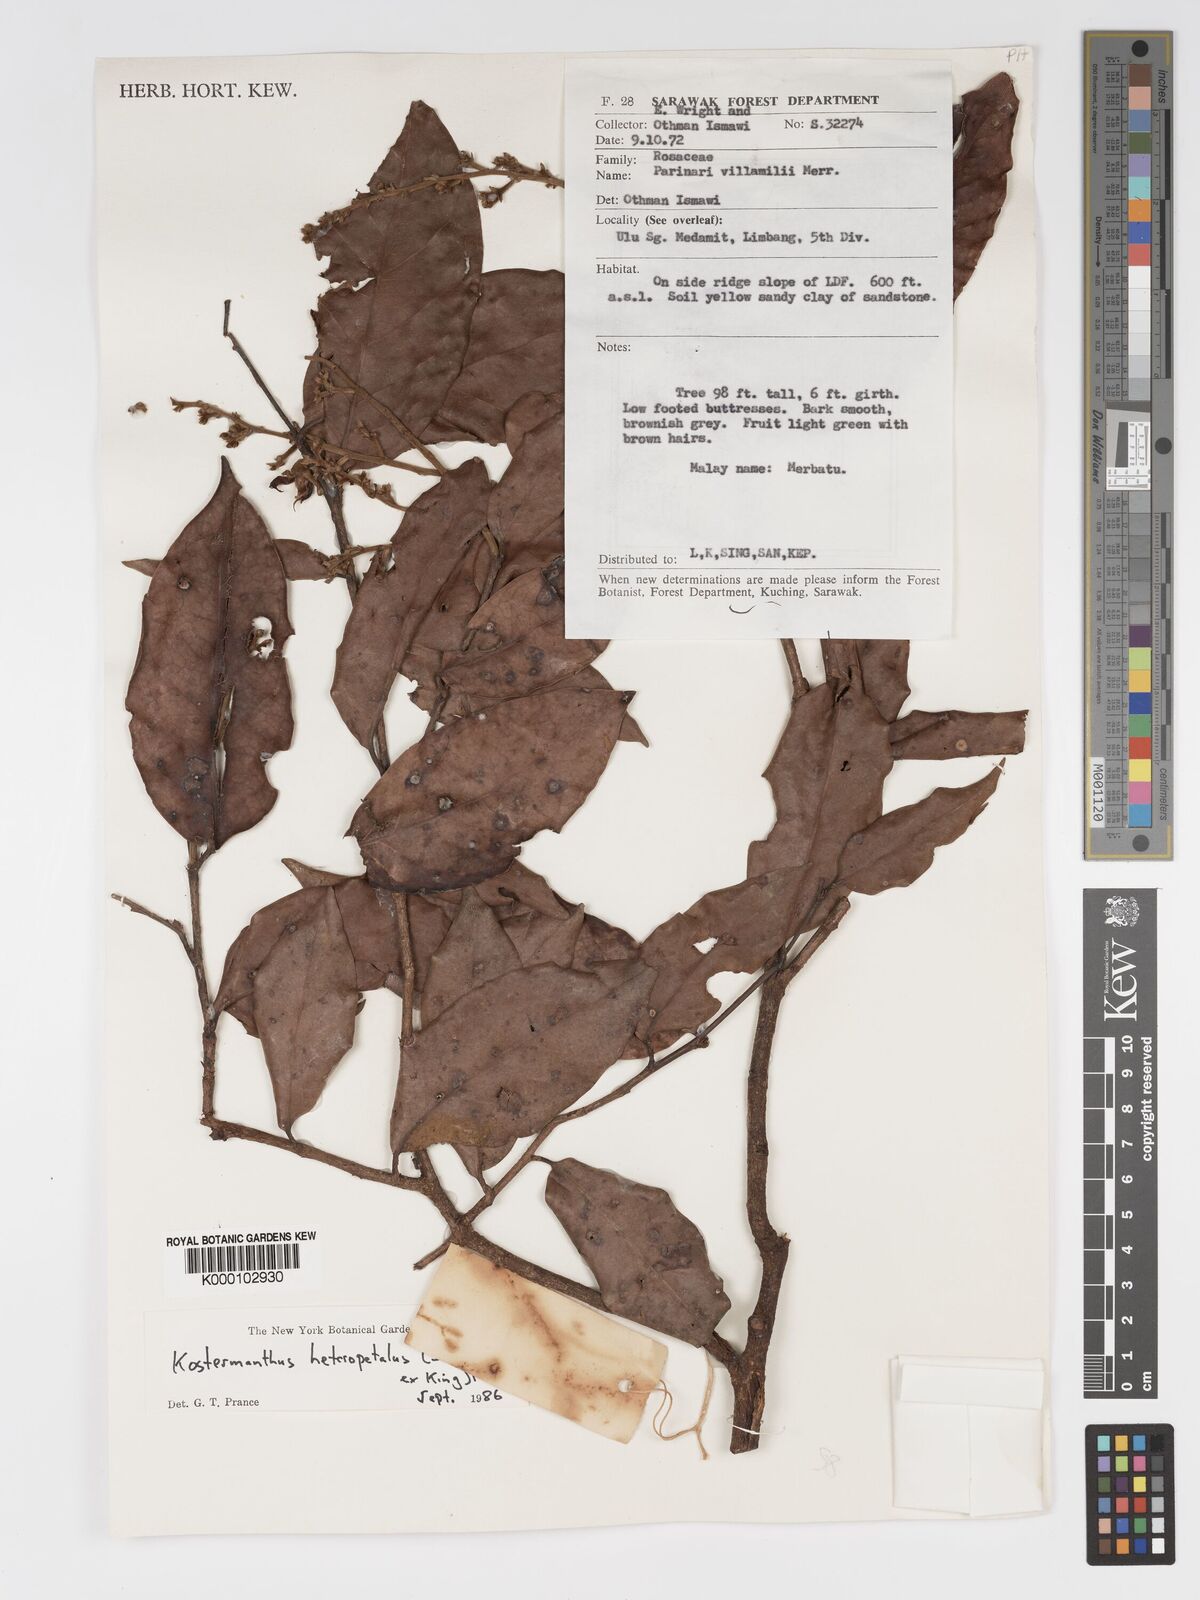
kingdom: Plantae
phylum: Tracheophyta
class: Magnoliopsida
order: Malpighiales
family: Chrysobalanaceae
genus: Kostermanthus
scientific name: Kostermanthus heteropetalus
